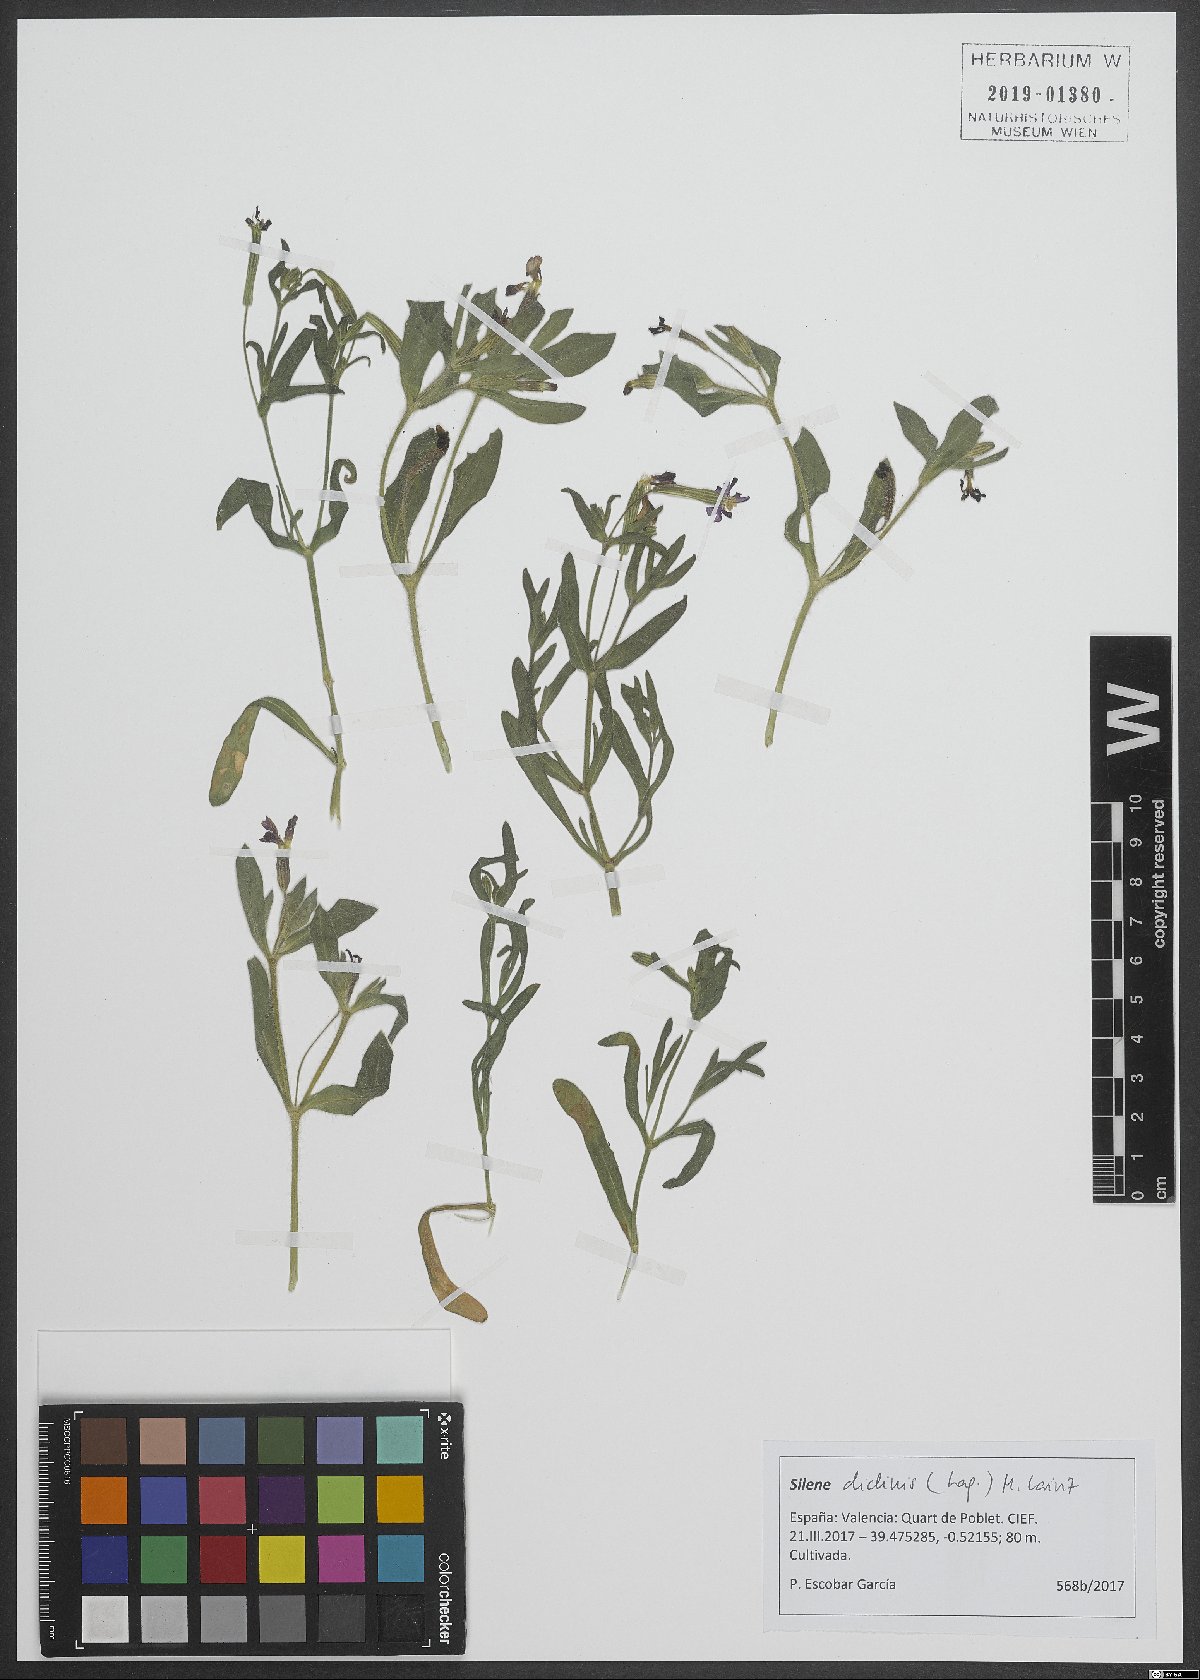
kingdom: Plantae
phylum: Tracheophyta
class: Magnoliopsida
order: Caryophyllales
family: Caryophyllaceae
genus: Silene
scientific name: Silene diclinis
